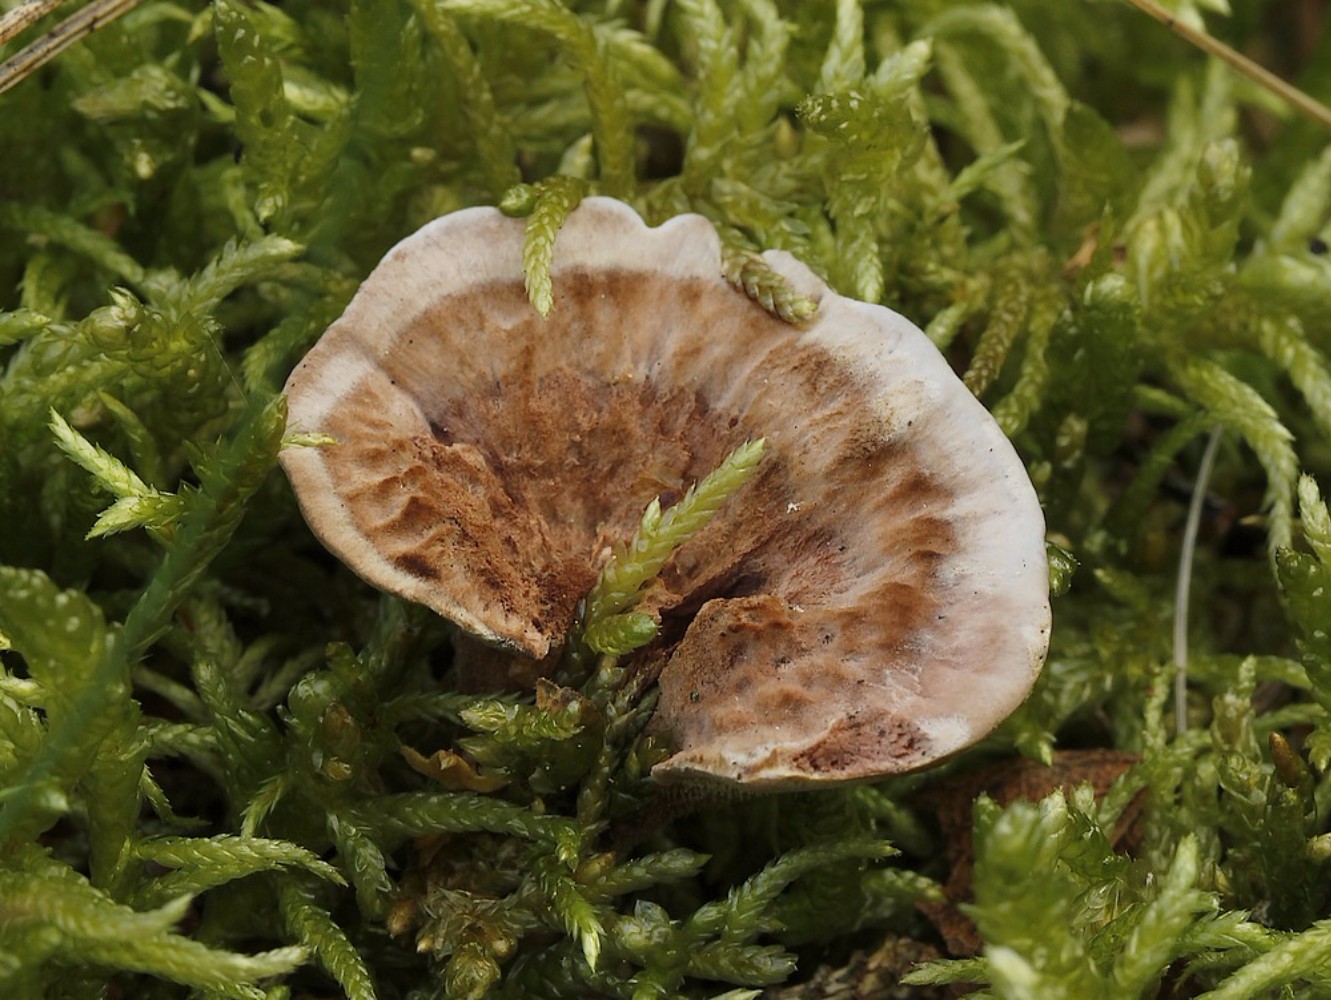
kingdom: Fungi
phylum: Basidiomycota
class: Agaricomycetes
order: Thelephorales
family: Bankeraceae
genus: Hydnellum
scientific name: Hydnellum concrescens
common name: bæltet korkpigsvamp
